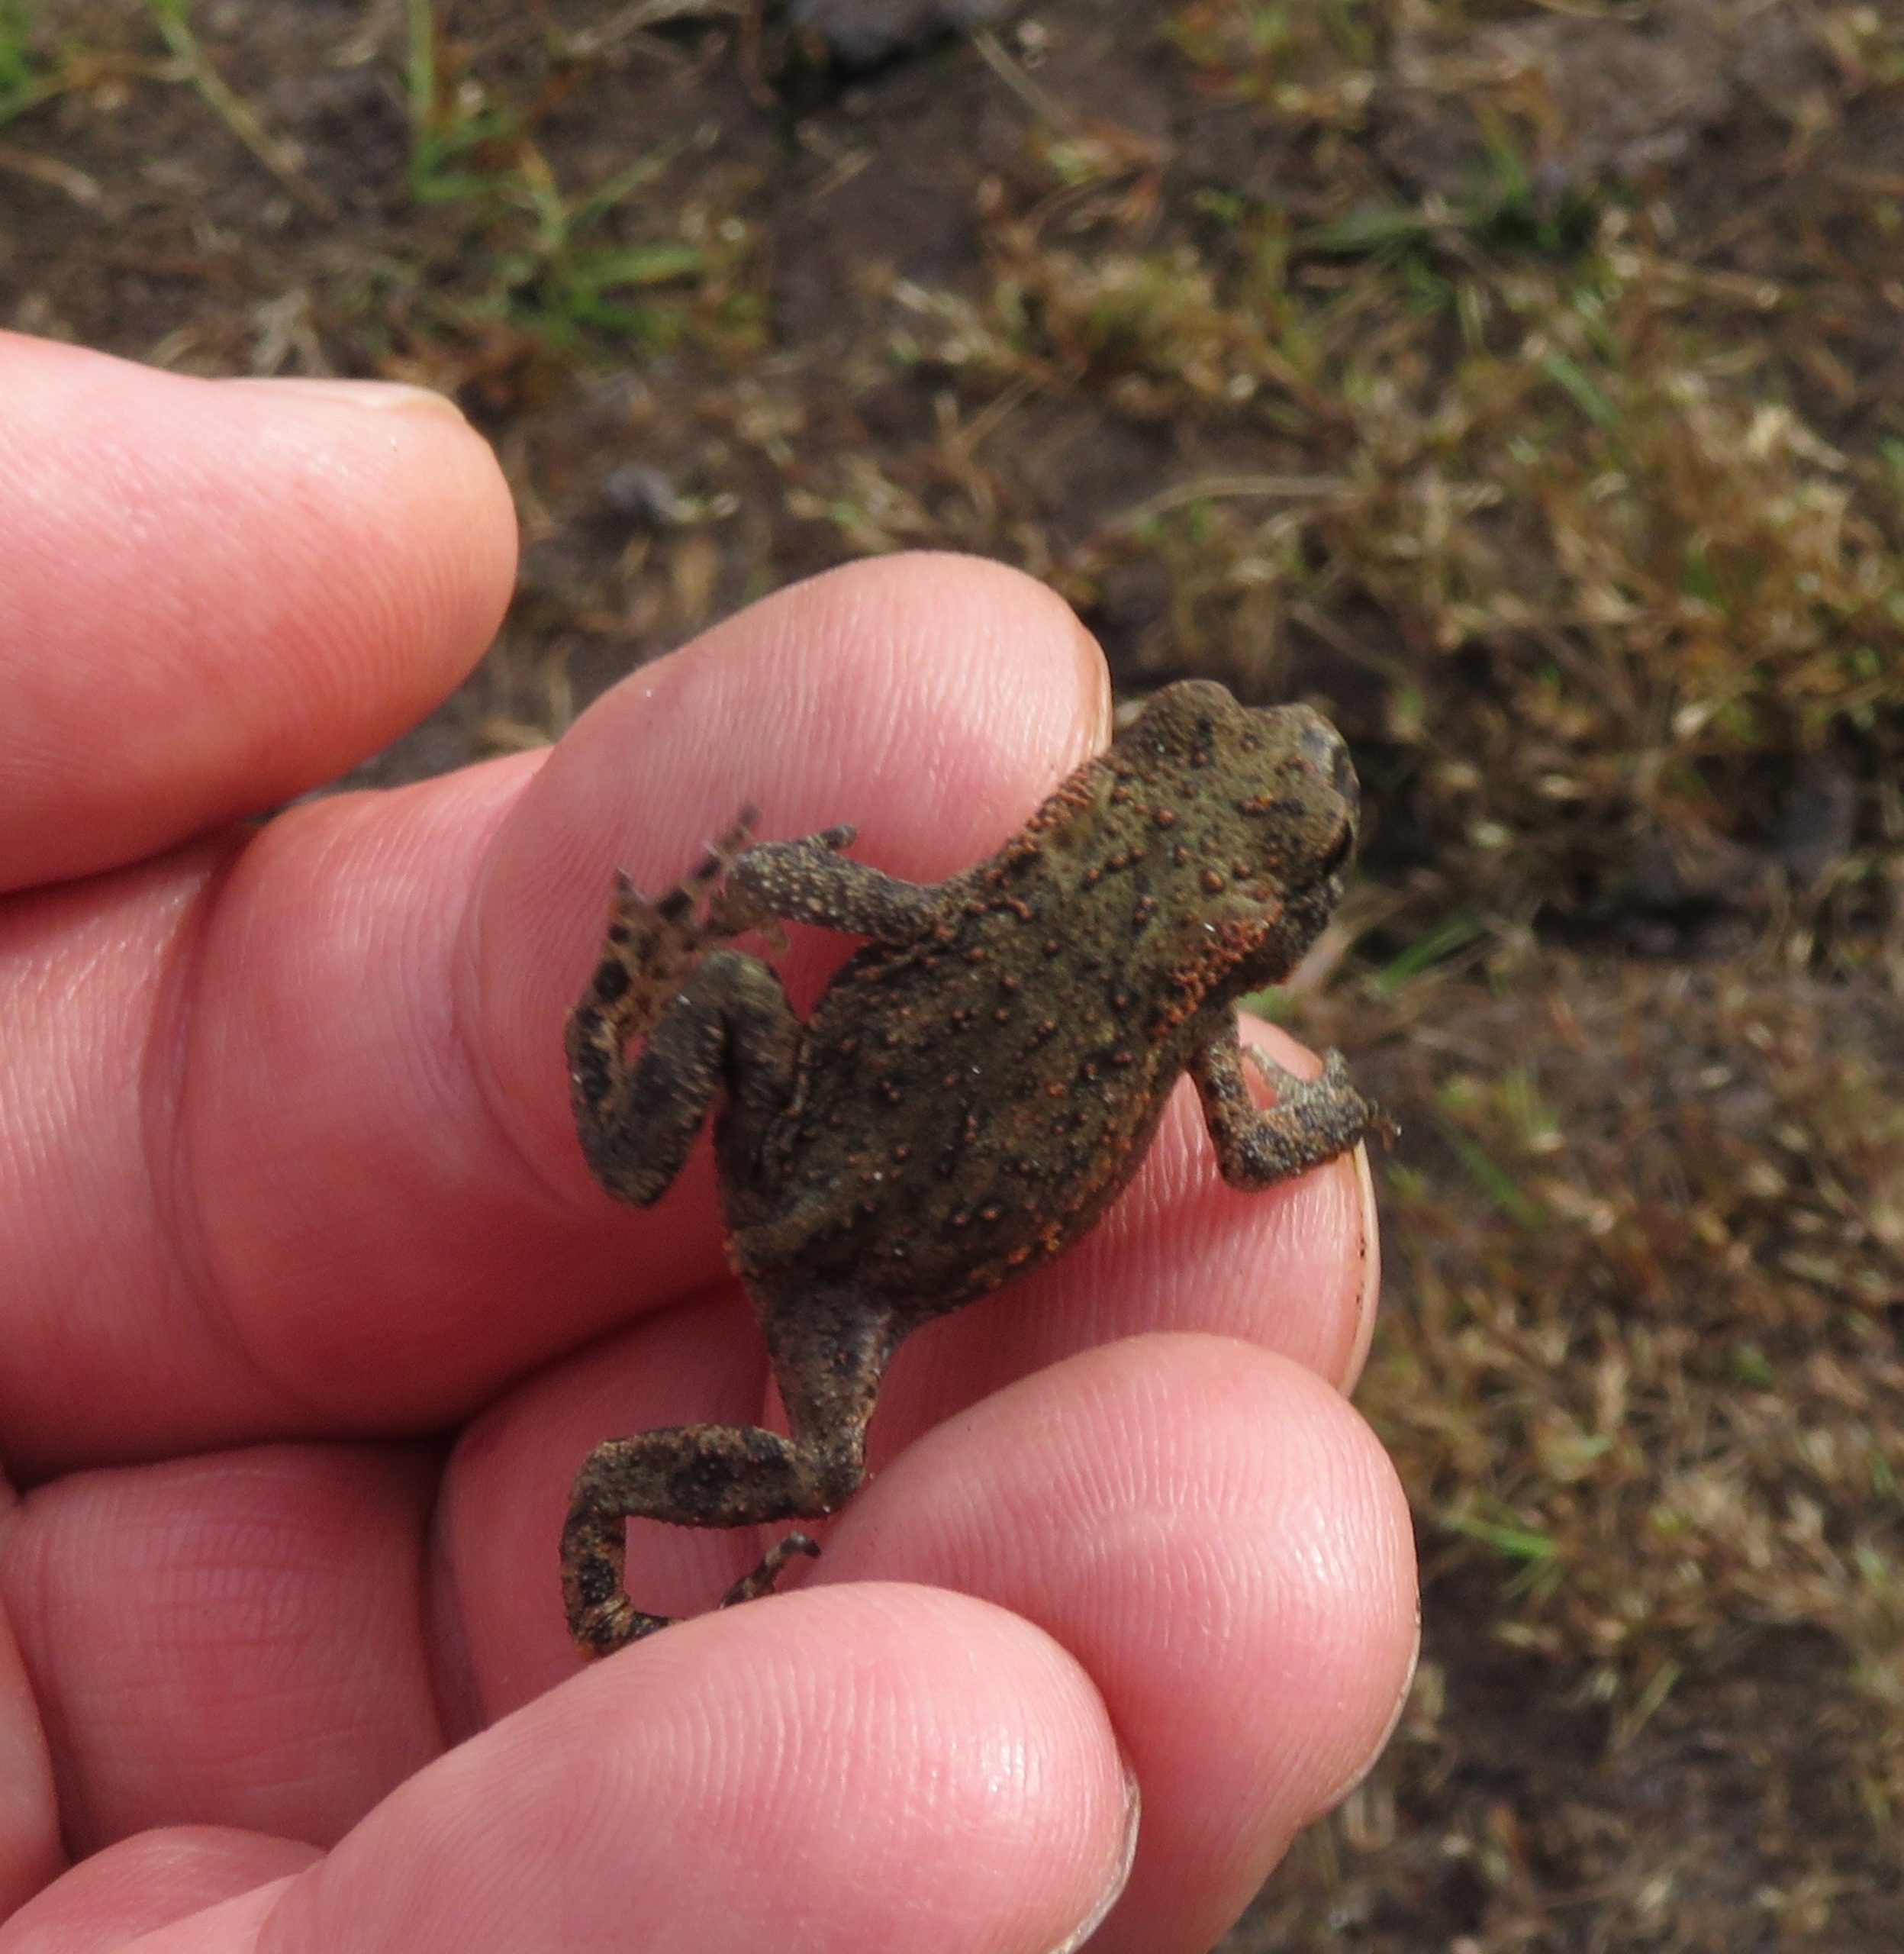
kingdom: Animalia
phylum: Chordata
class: Amphibia
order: Anura
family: Bufonidae
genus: Bufo
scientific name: Bufo bufo
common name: Skrubtudse
